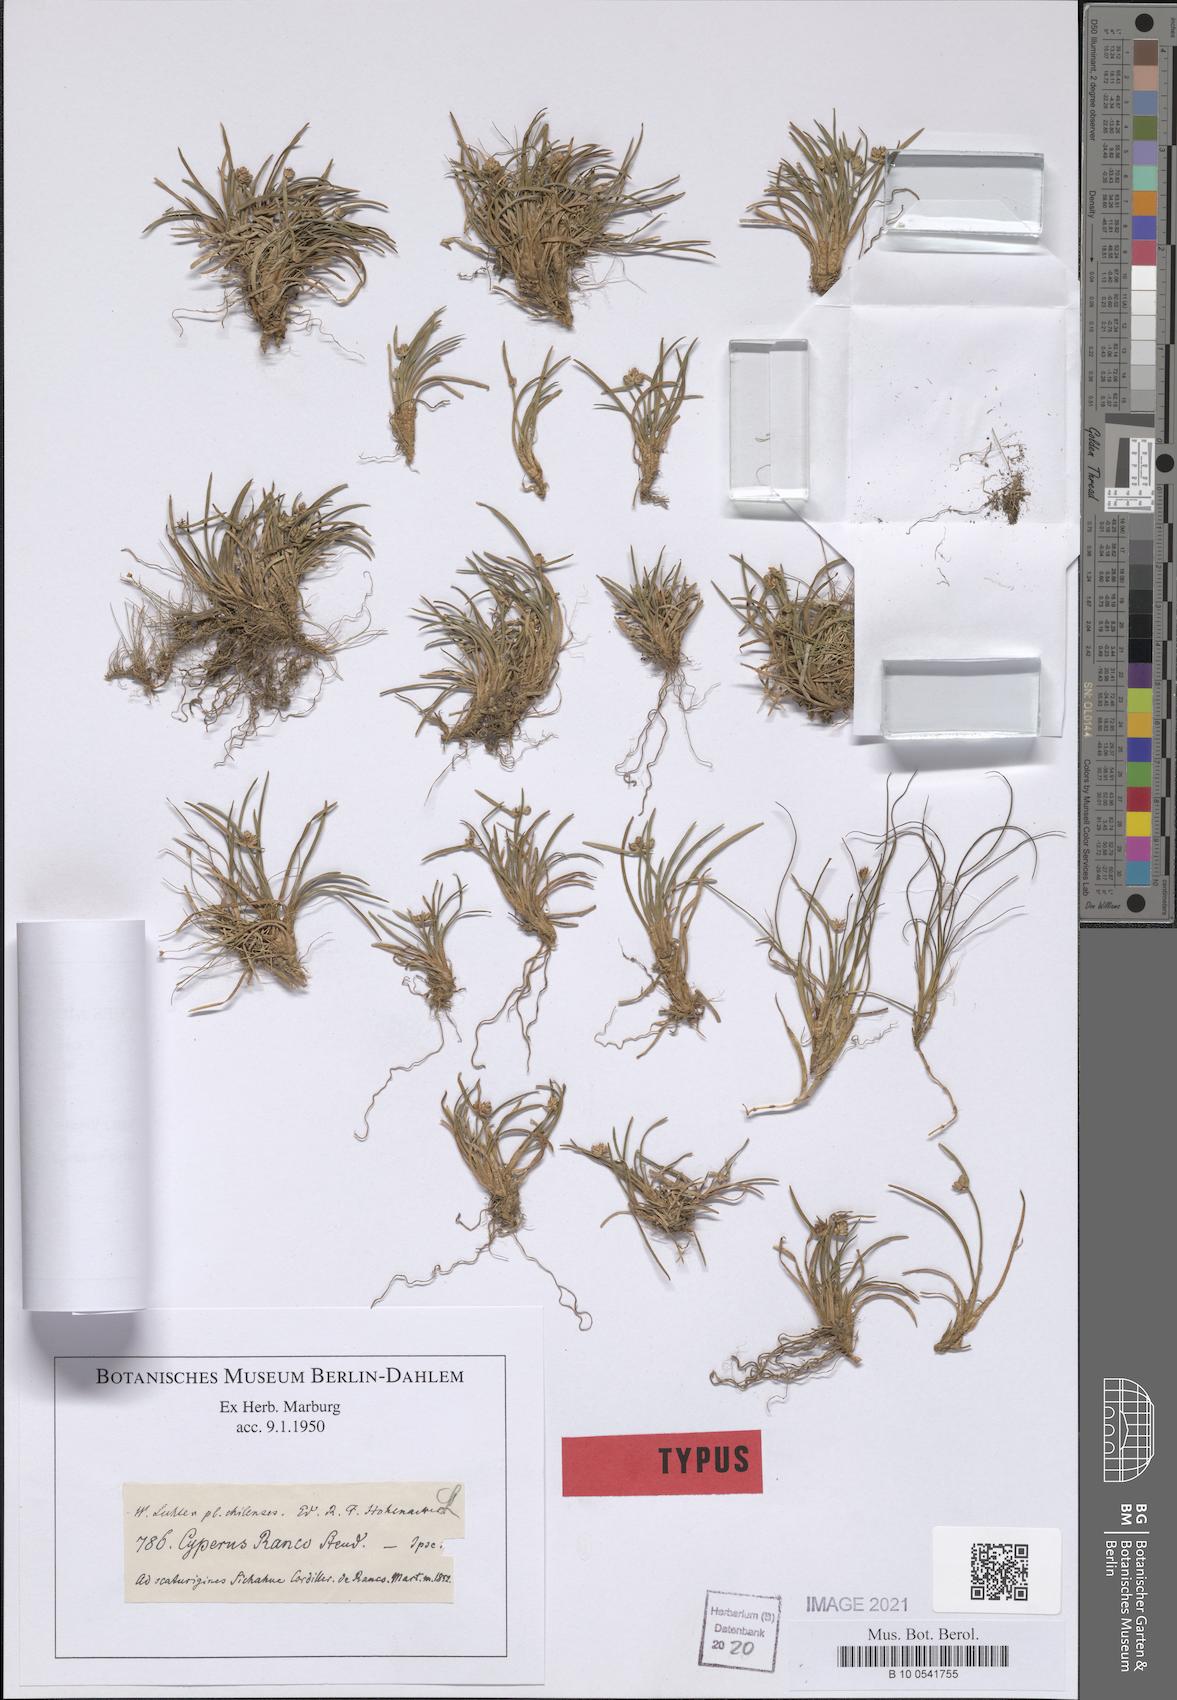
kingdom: Plantae
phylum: Tracheophyta
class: Liliopsida
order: Poales
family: Cyperaceae
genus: Isolepis
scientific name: Isolepis ranko
